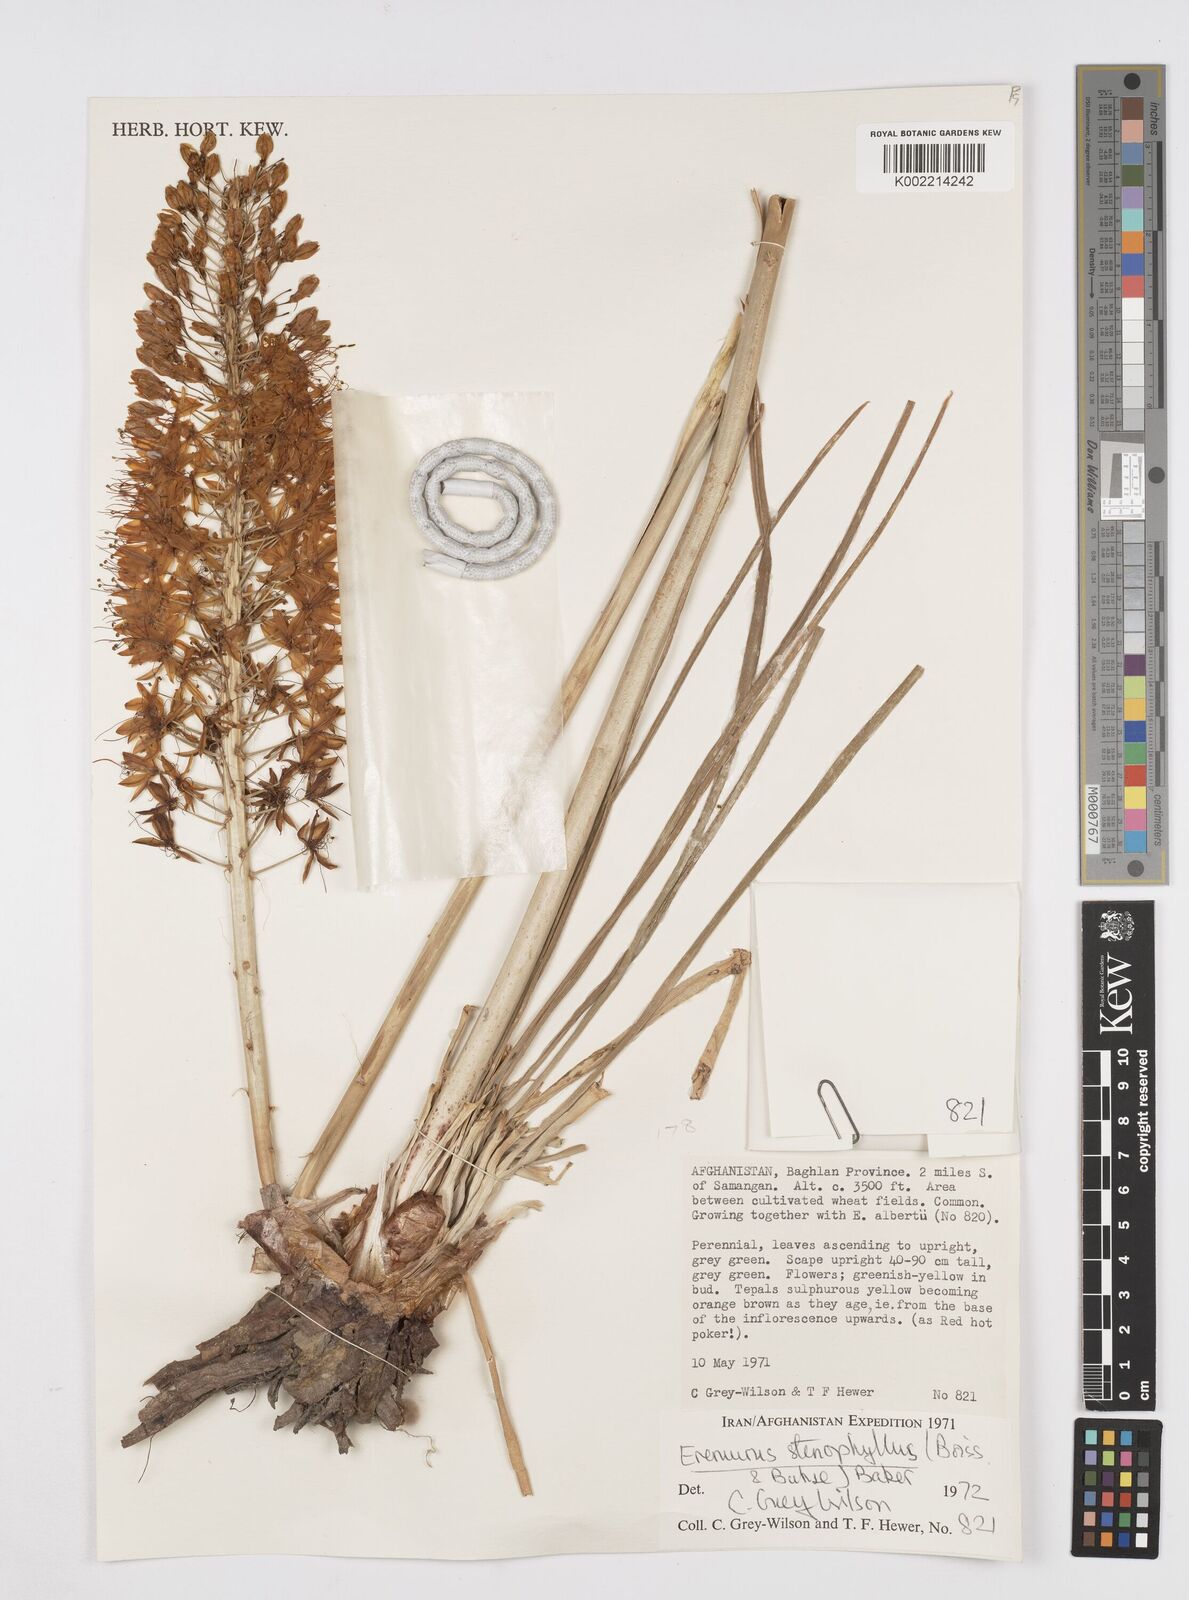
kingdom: Plantae
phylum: Tracheophyta
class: Liliopsida
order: Asparagales
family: Asphodelaceae
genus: Eremurus
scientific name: Eremurus stenophyllus
